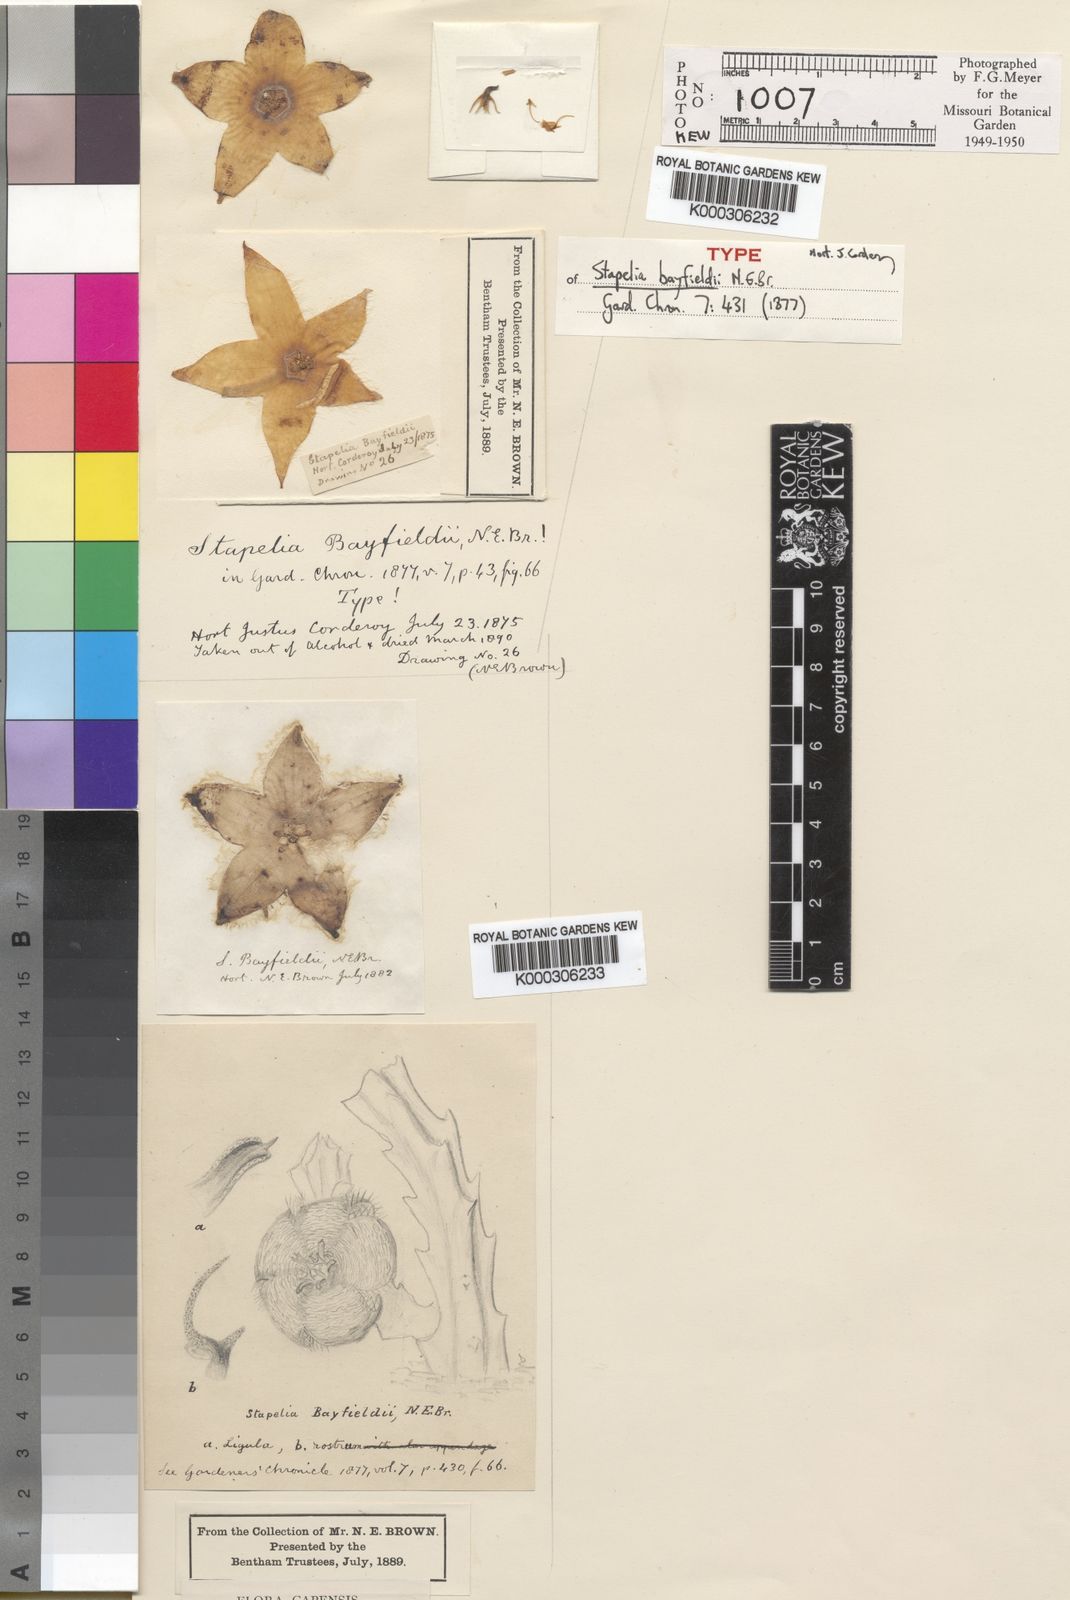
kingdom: Plantae
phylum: Tracheophyta
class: Magnoliopsida
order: Gentianales
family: Apocynaceae
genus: Stapelia
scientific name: Stapelia bayfieldii
